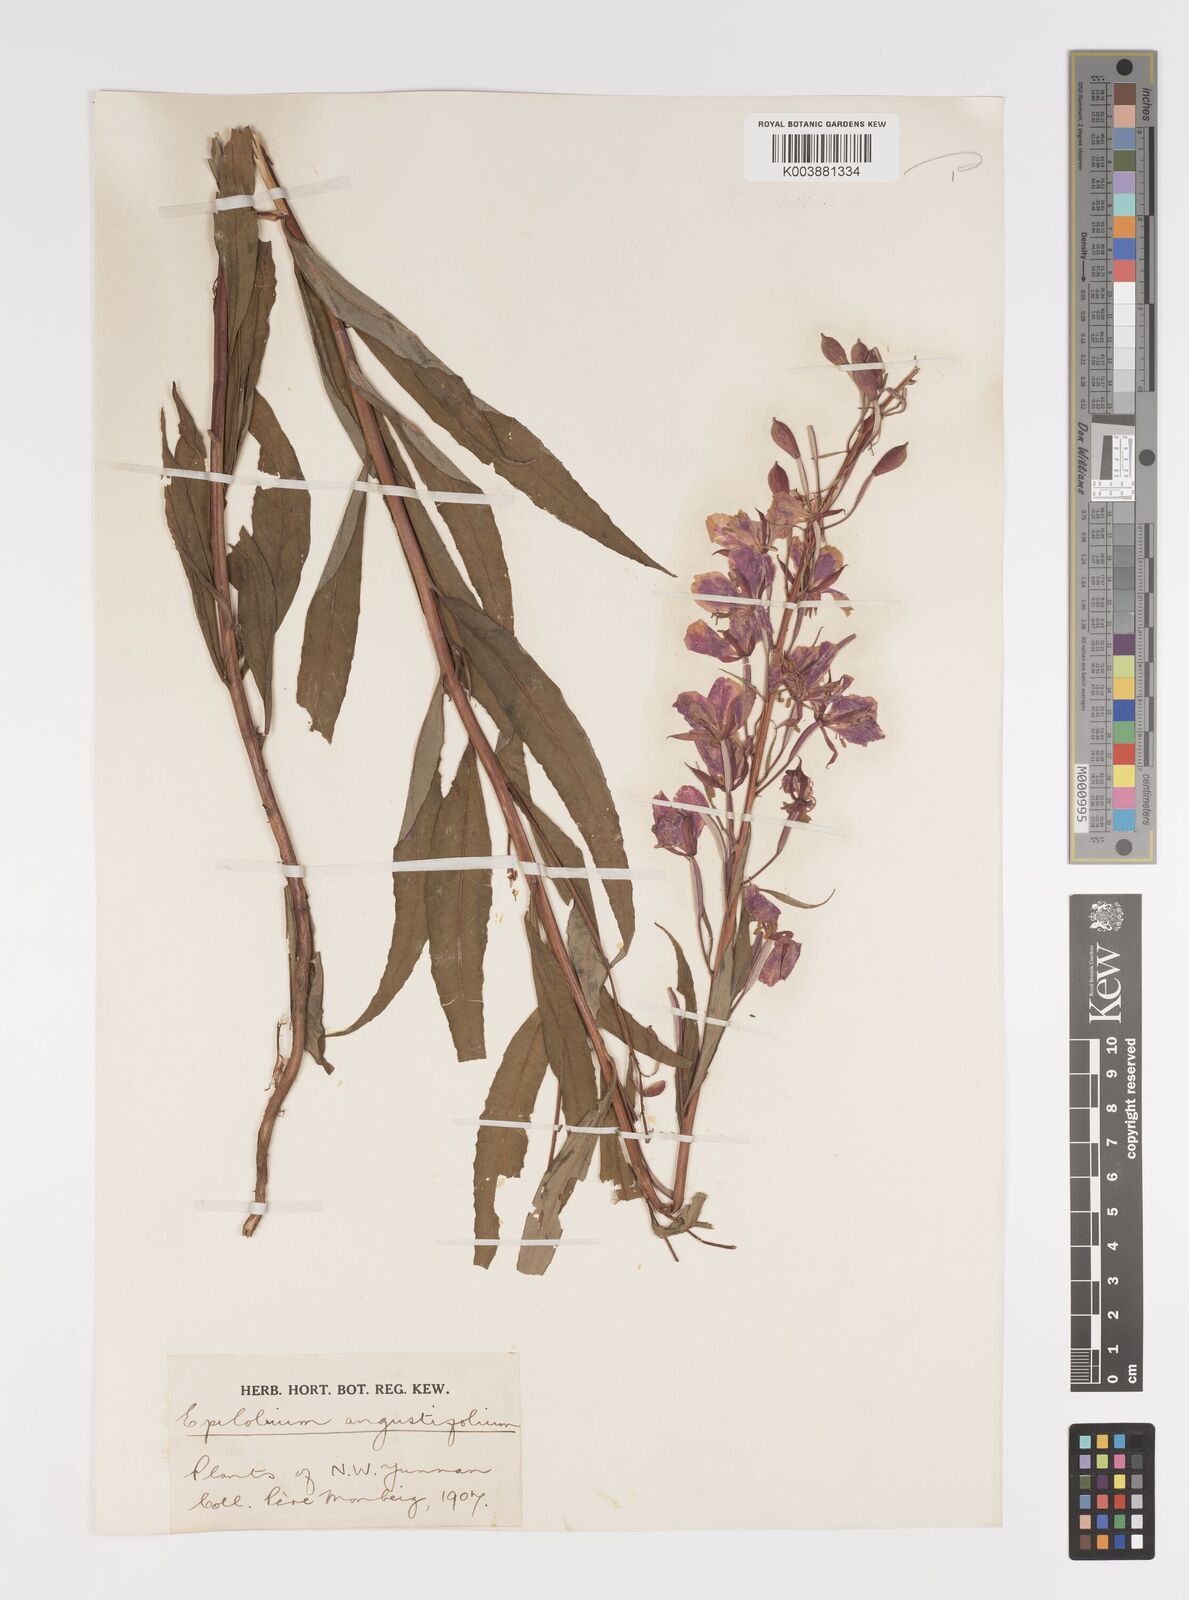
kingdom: Plantae
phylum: Tracheophyta
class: Magnoliopsida
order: Myrtales
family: Onagraceae
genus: Chamaenerion
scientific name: Chamaenerion angustifolium
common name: Fireweed
